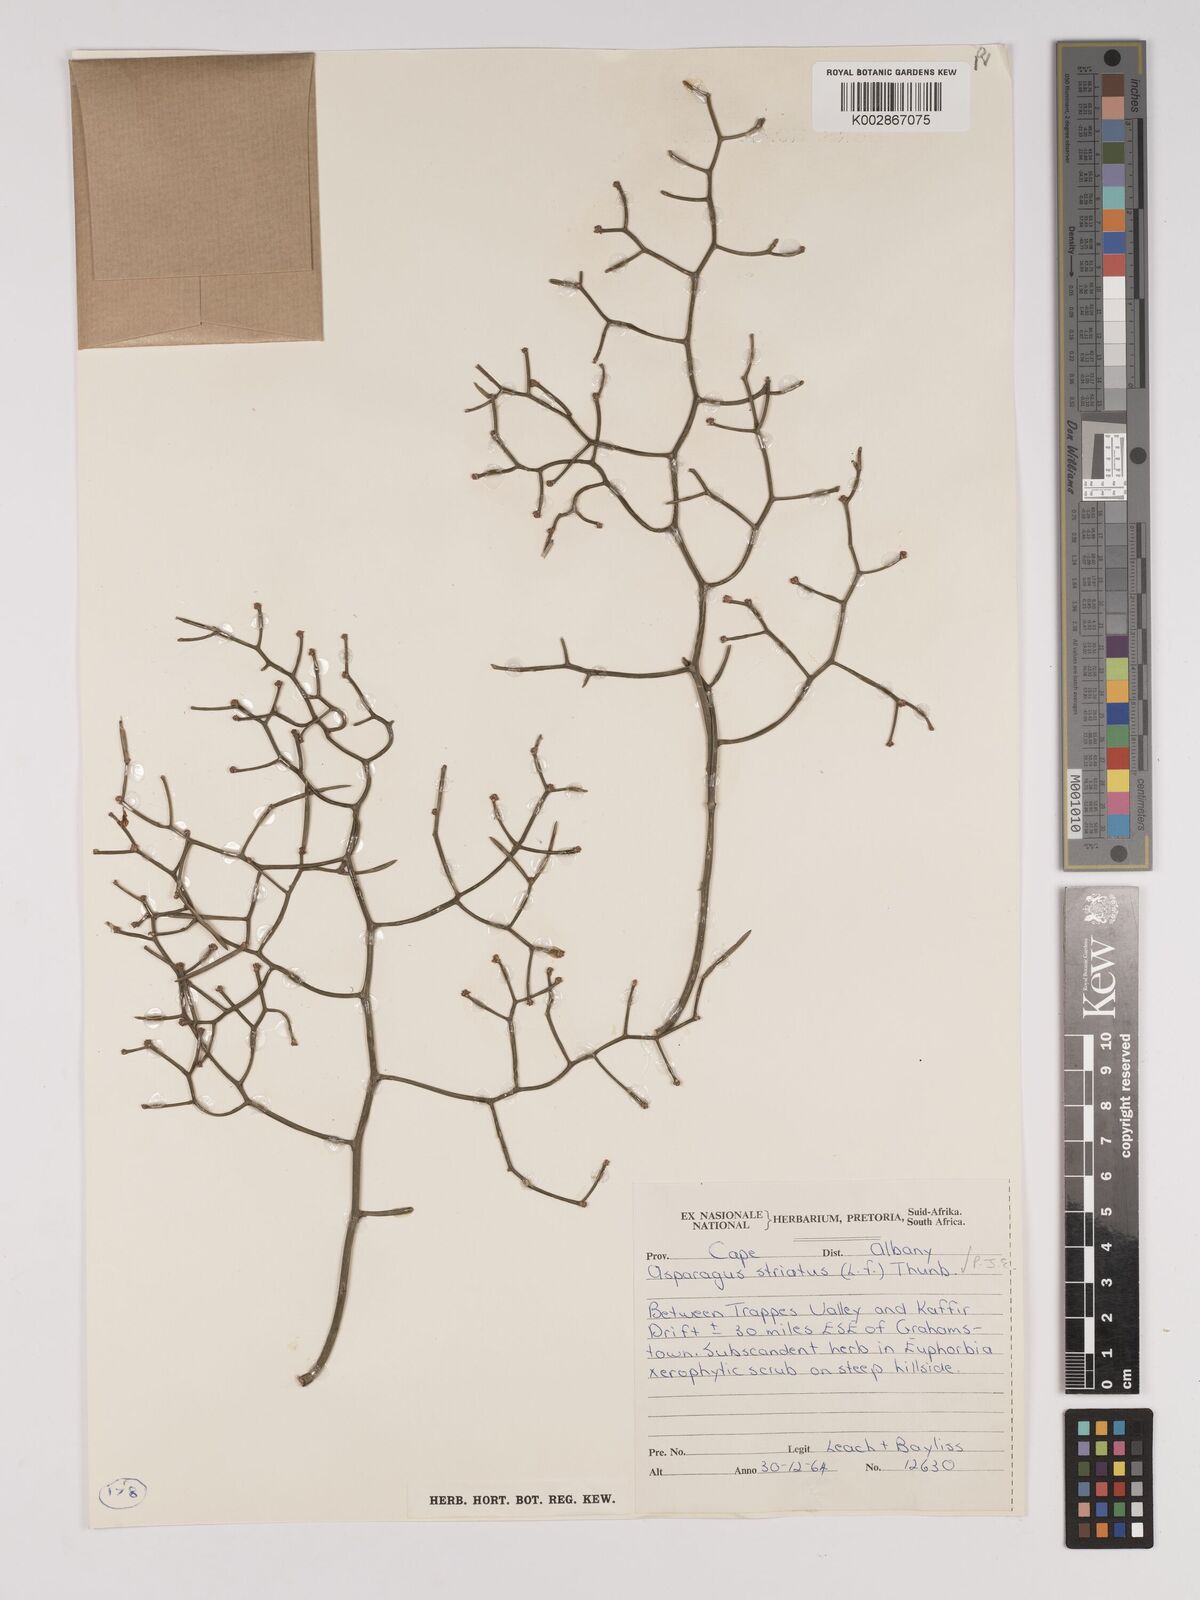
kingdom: Plantae
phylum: Tracheophyta
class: Liliopsida
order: Asparagales
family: Asparagaceae
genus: Asparagus
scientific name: Asparagus striatus
